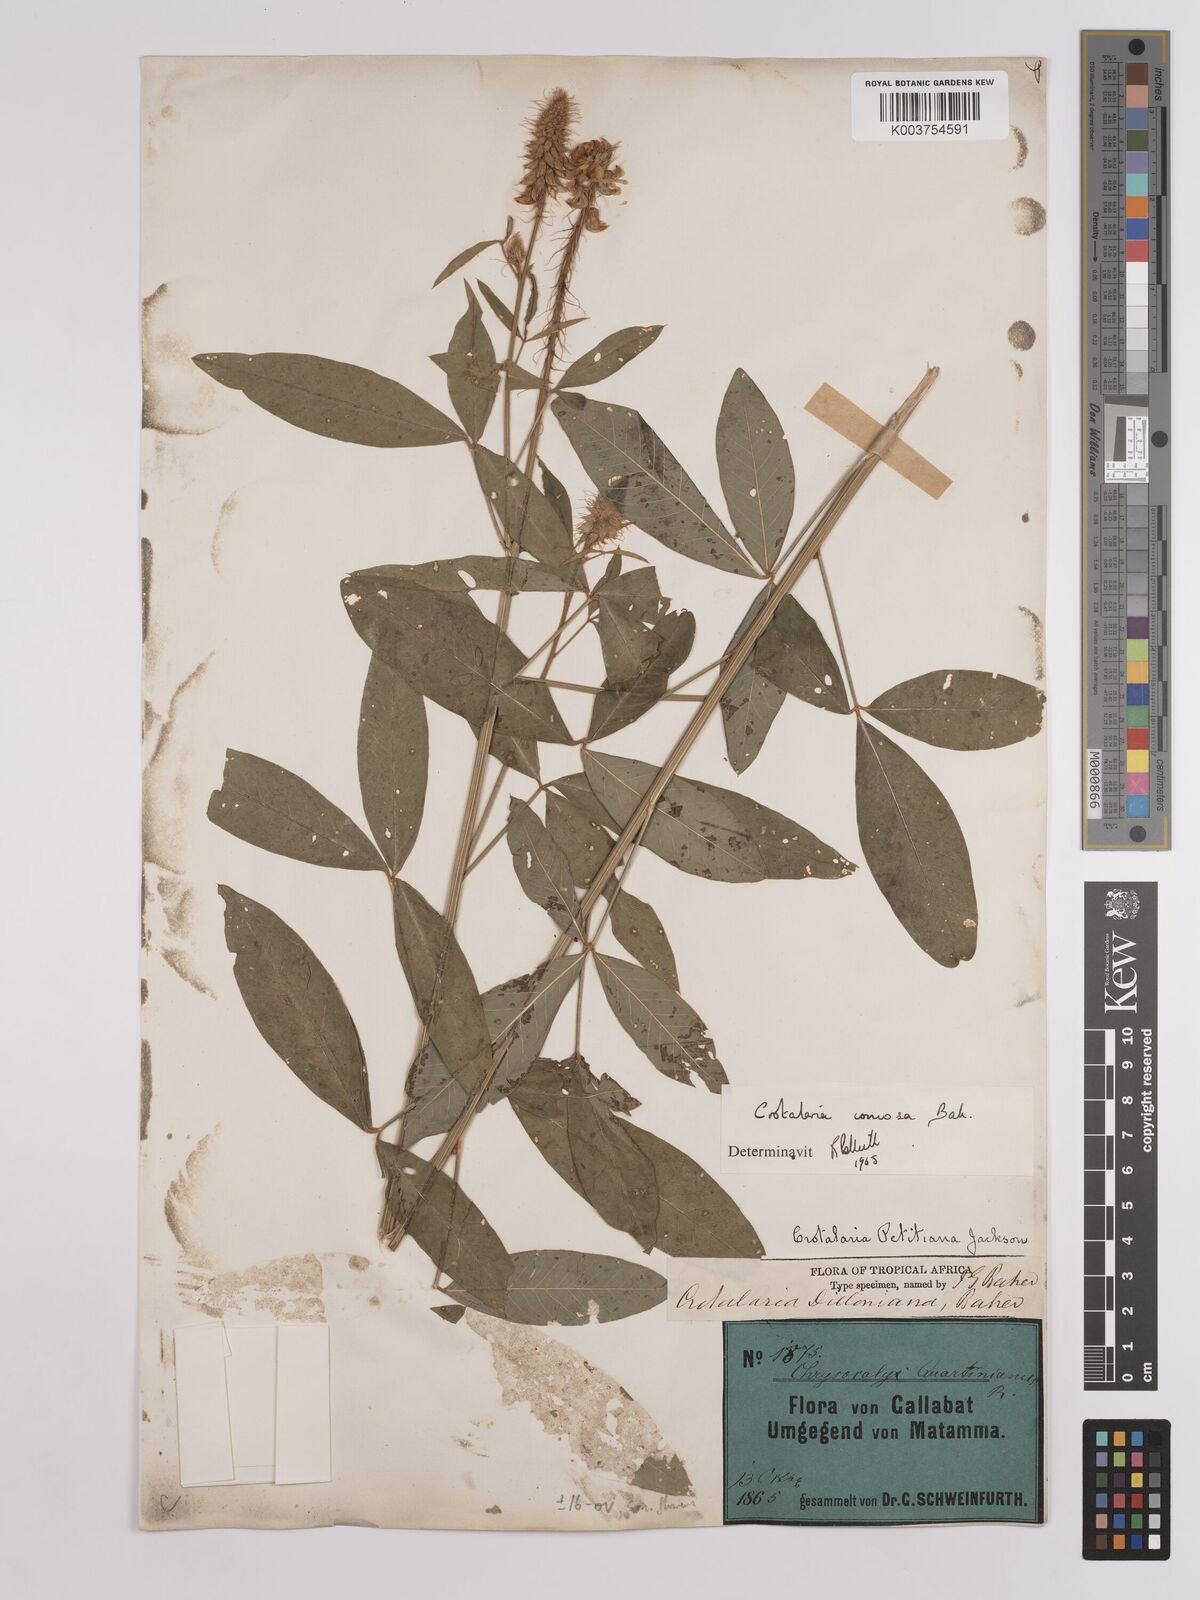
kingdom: Plantae
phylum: Tracheophyta
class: Magnoliopsida
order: Fabales
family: Fabaceae
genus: Crotalaria
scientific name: Crotalaria comosa
